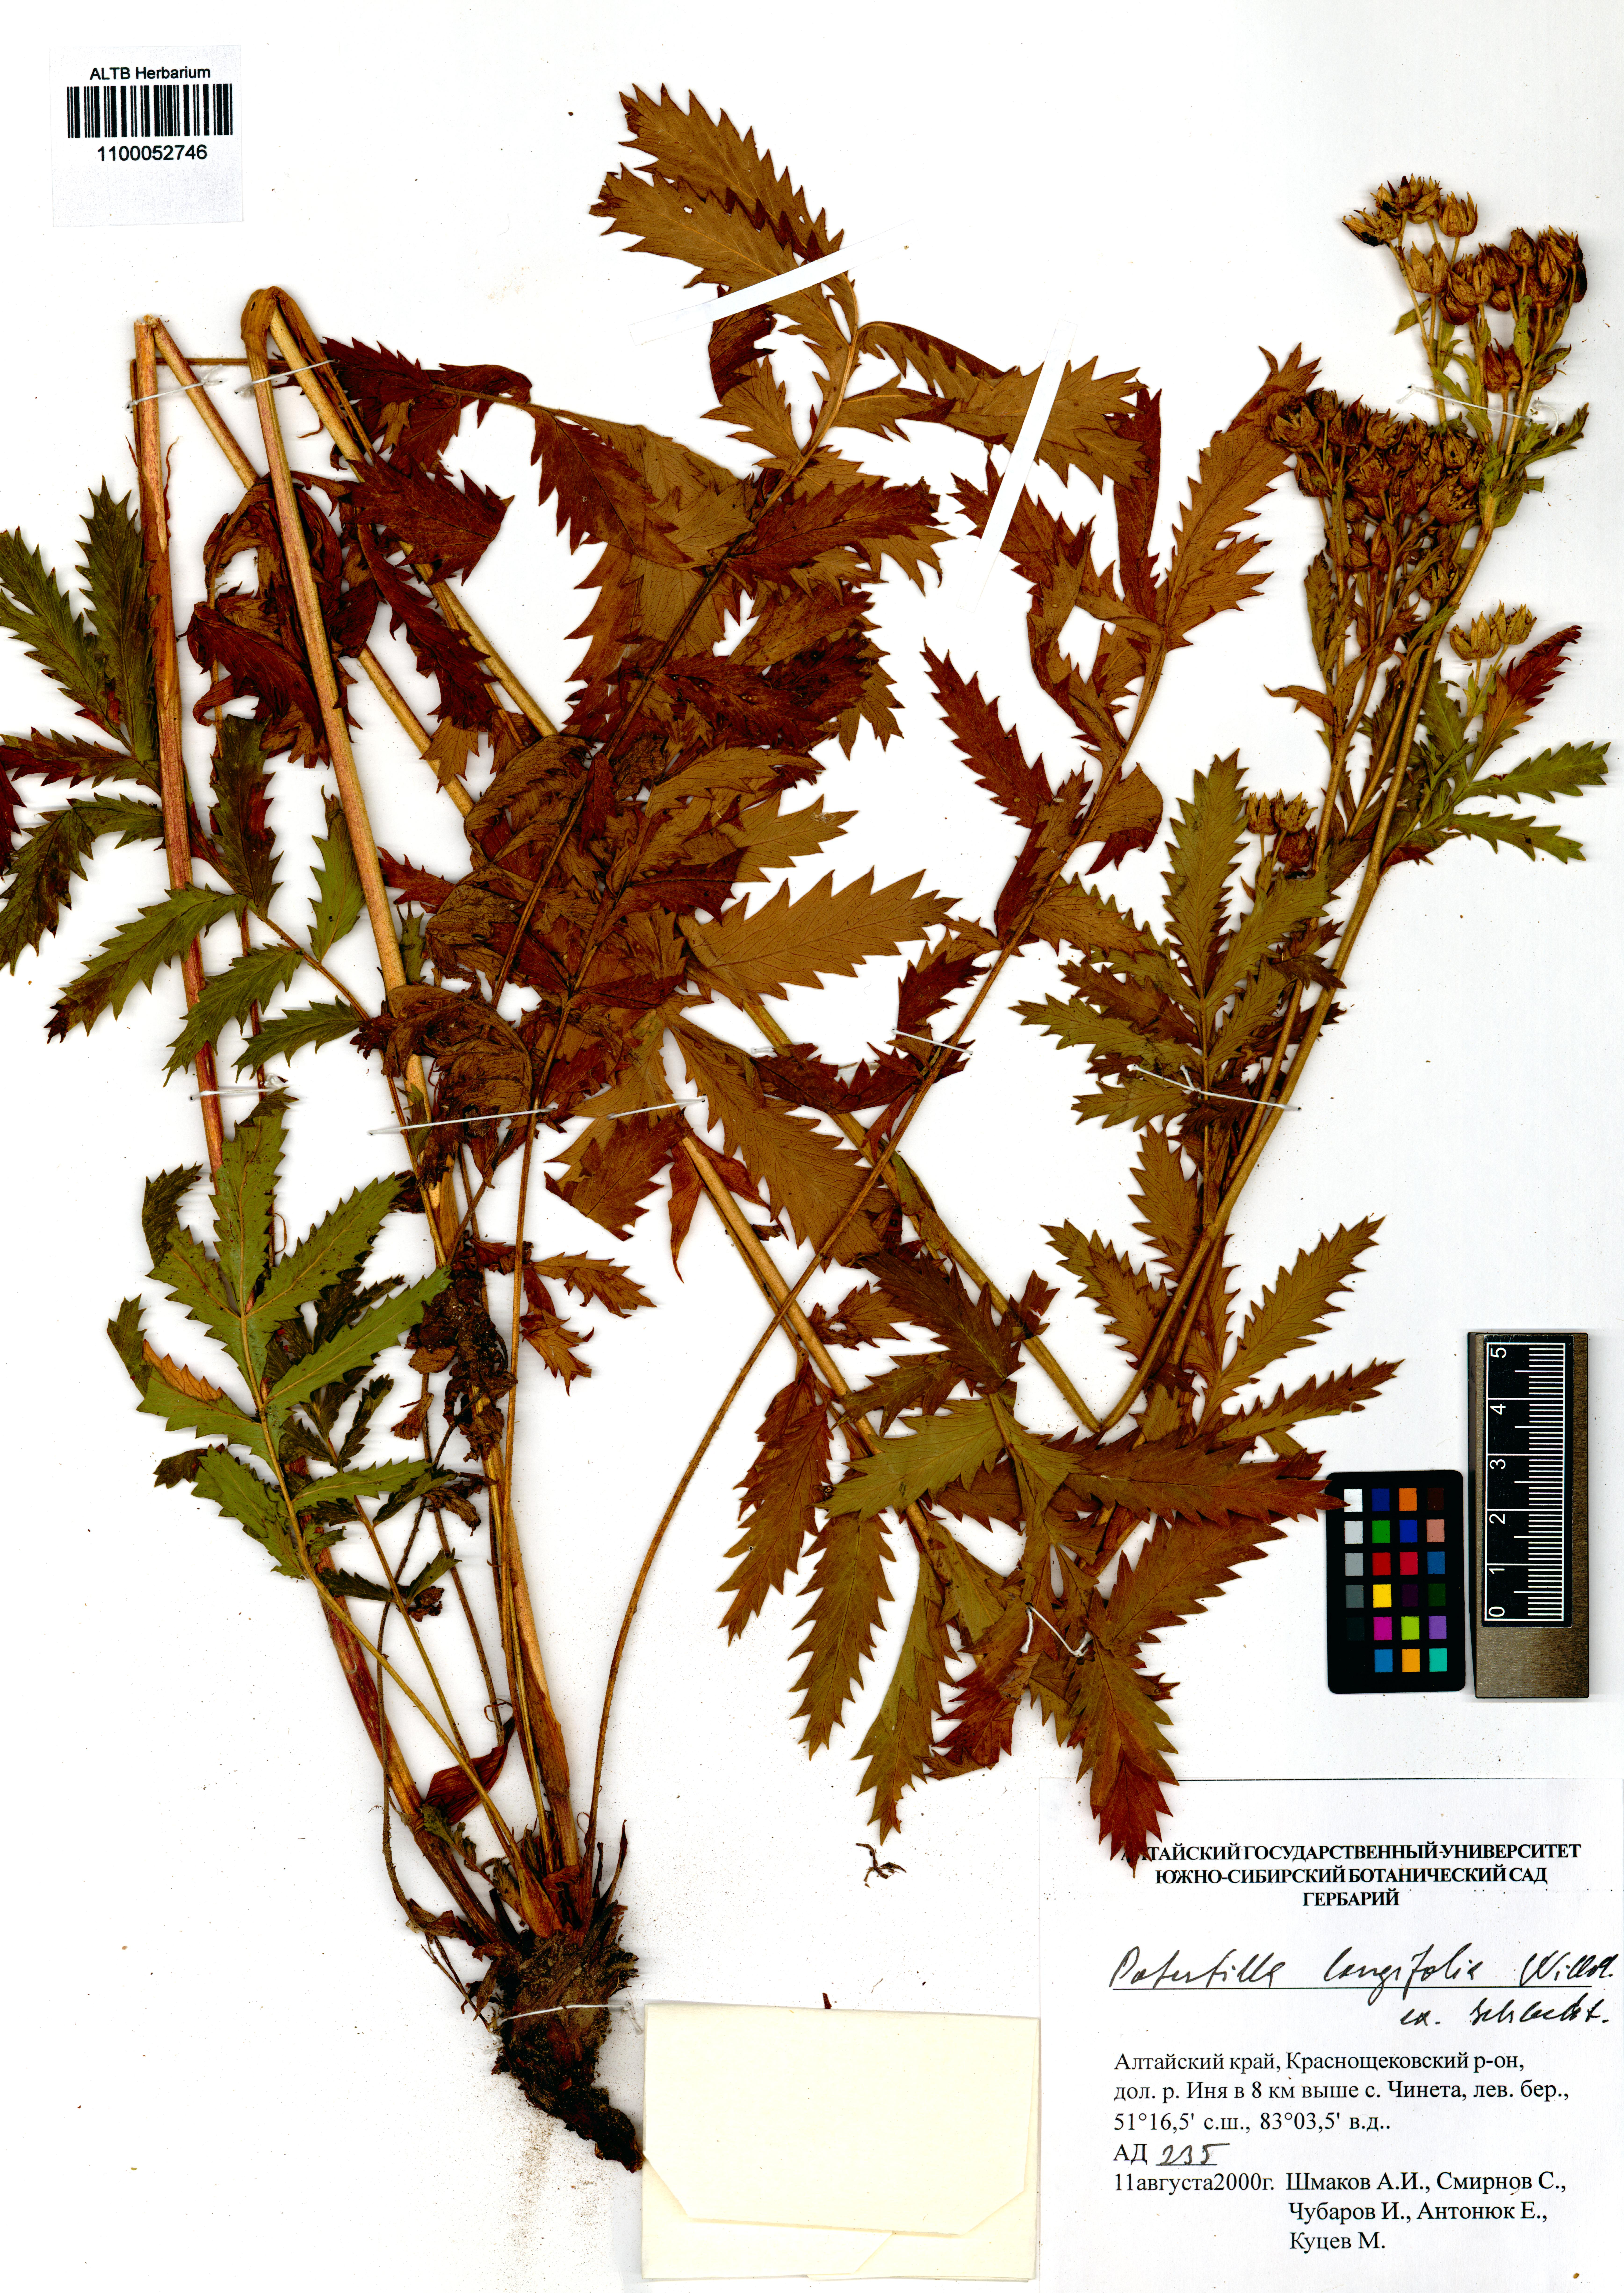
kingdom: Plantae
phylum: Tracheophyta
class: Magnoliopsida
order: Rosales
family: Rosaceae
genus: Potentilla
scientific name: Potentilla longifolia
